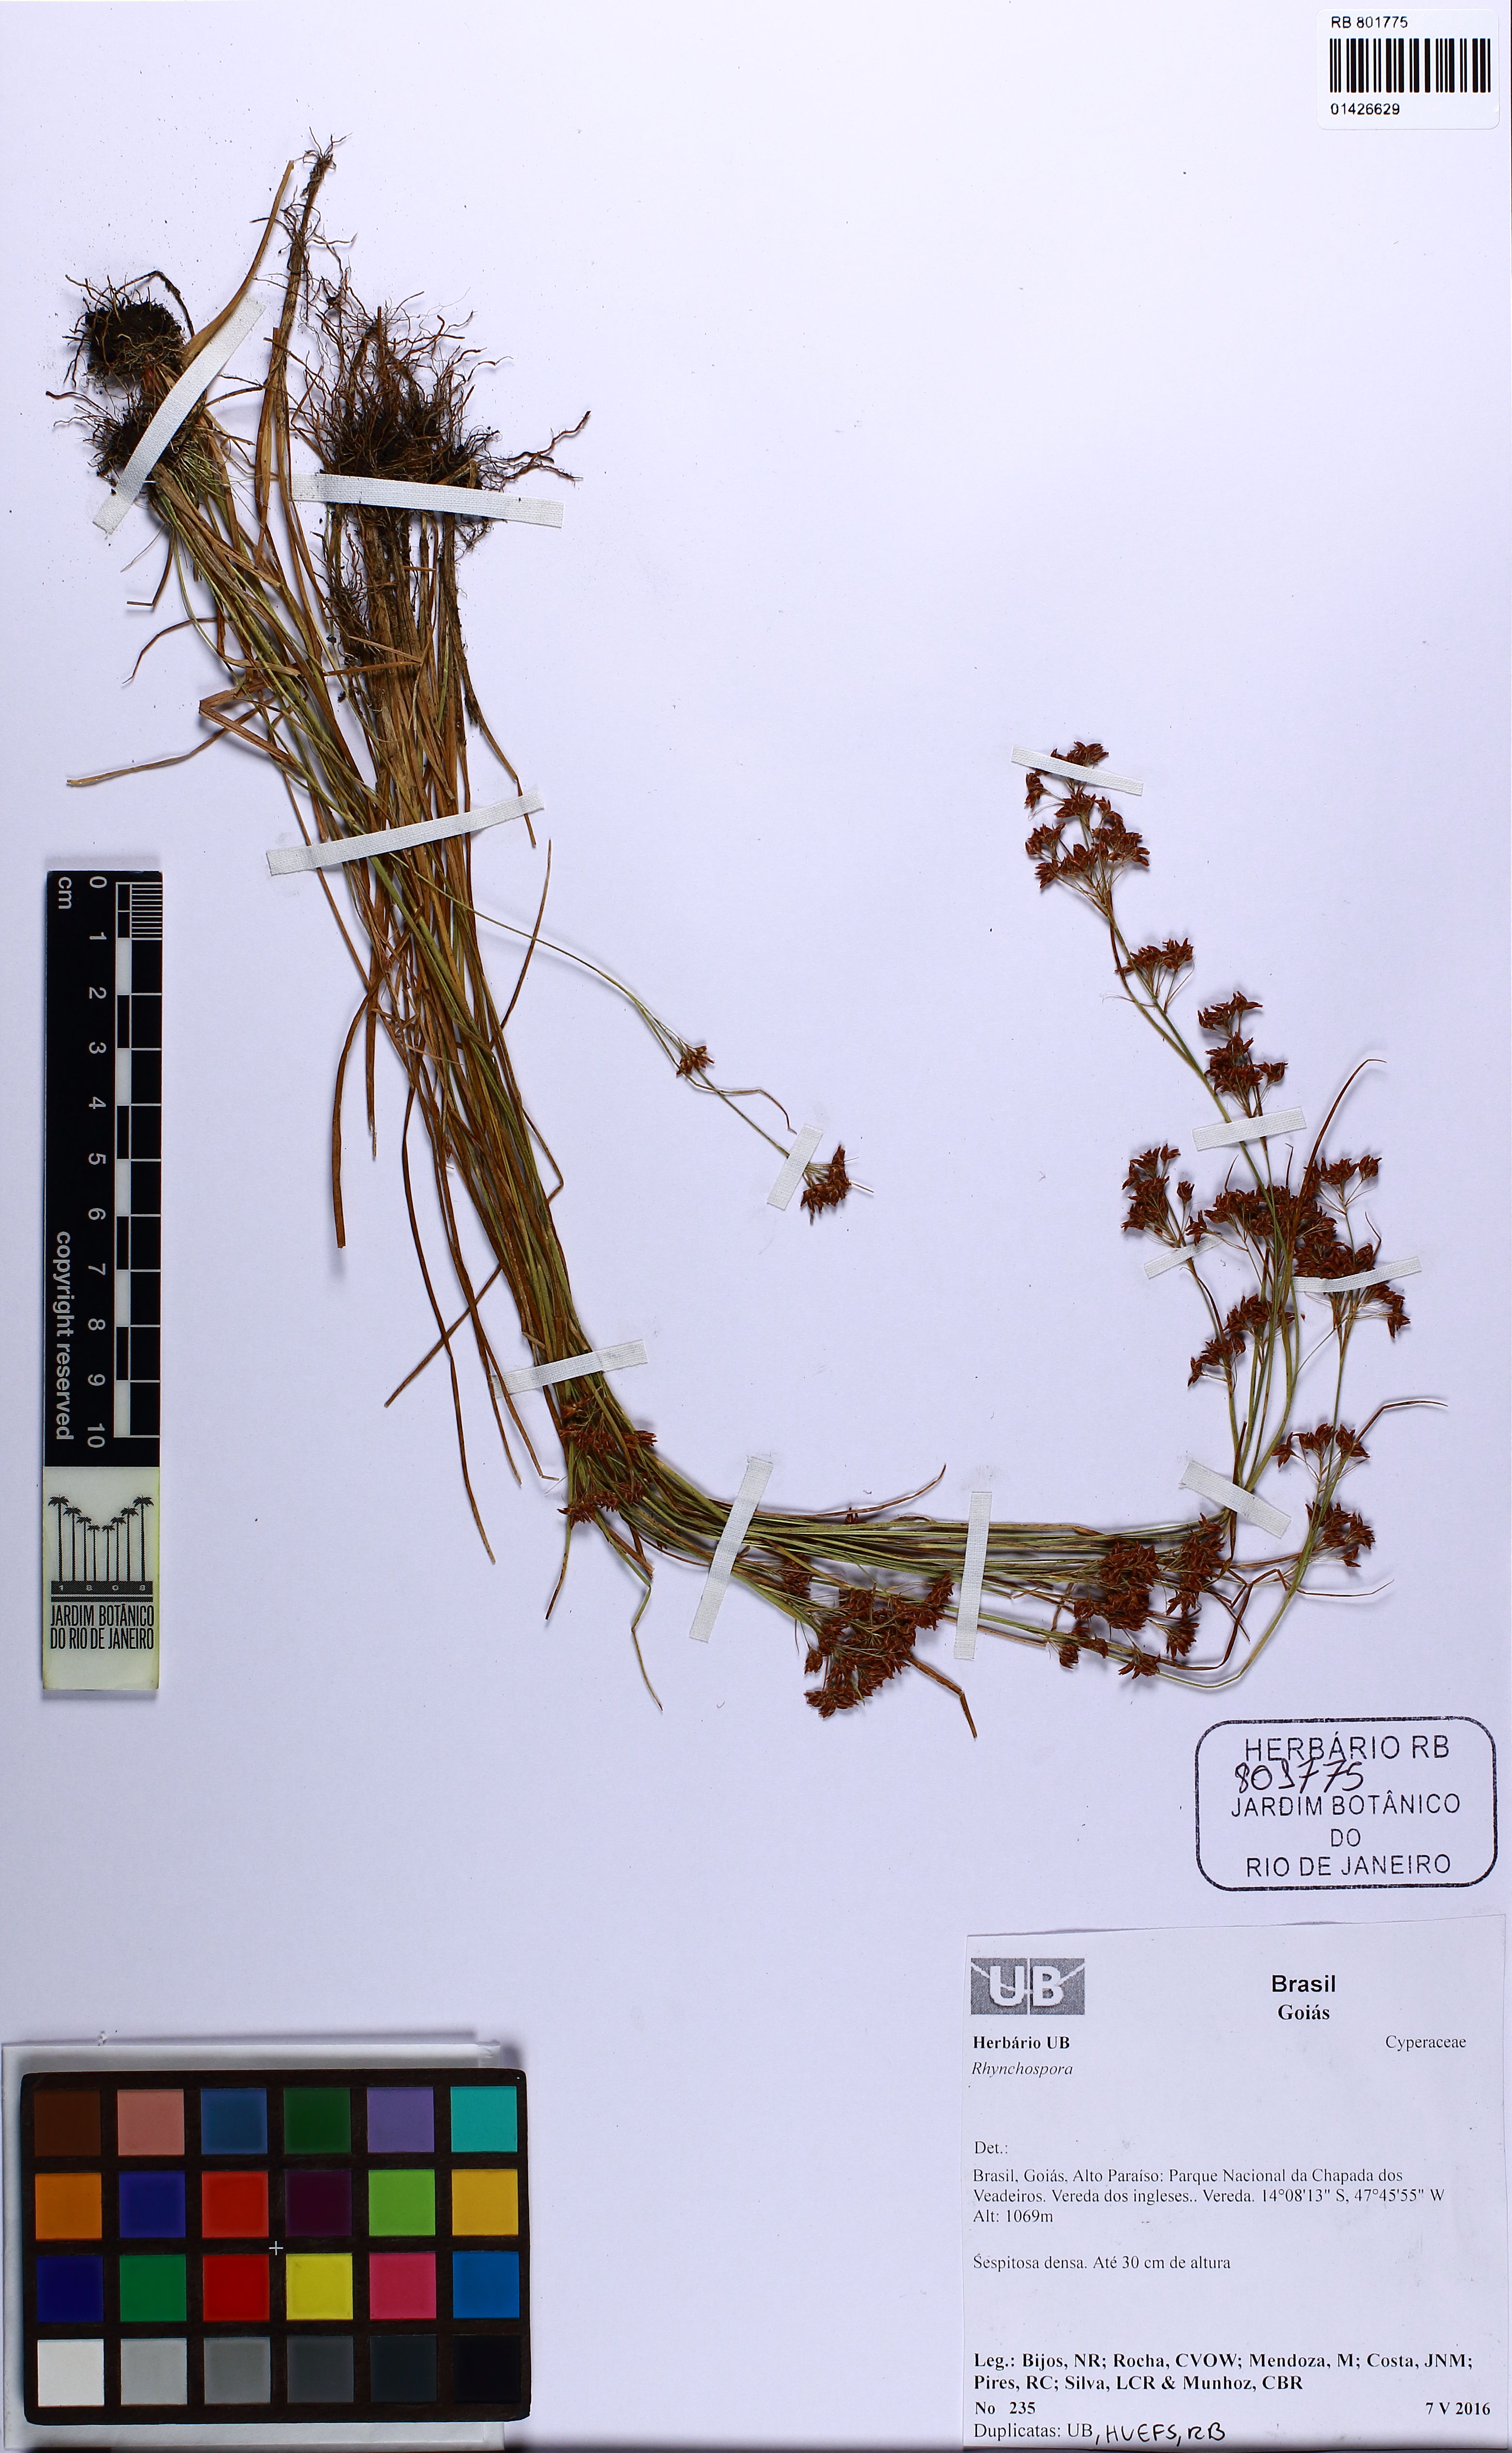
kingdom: Plantae
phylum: Tracheophyta
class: Liliopsida
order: Poales
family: Cyperaceae
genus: Rhynchospora
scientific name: Rhynchospora
